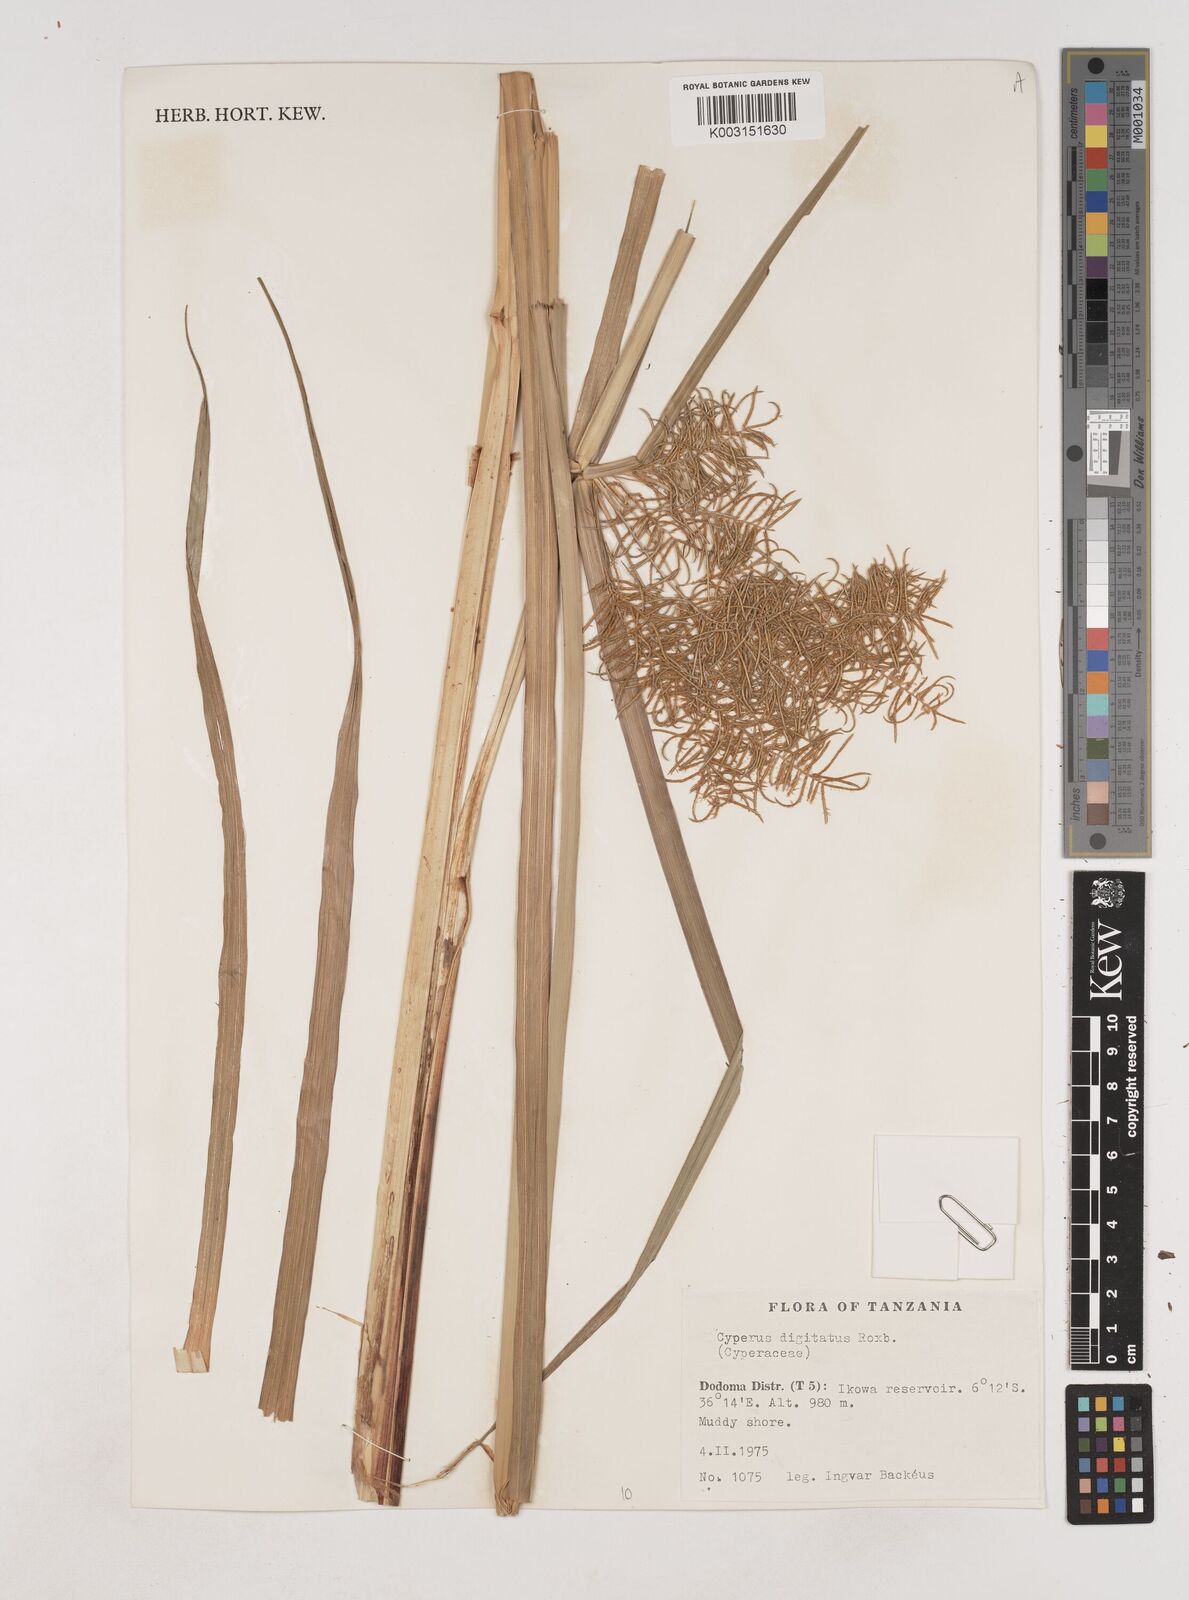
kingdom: Plantae
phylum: Tracheophyta
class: Liliopsida
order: Poales
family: Cyperaceae
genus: Cyperus
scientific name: Cyperus digitatus
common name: Finger flatsedge
